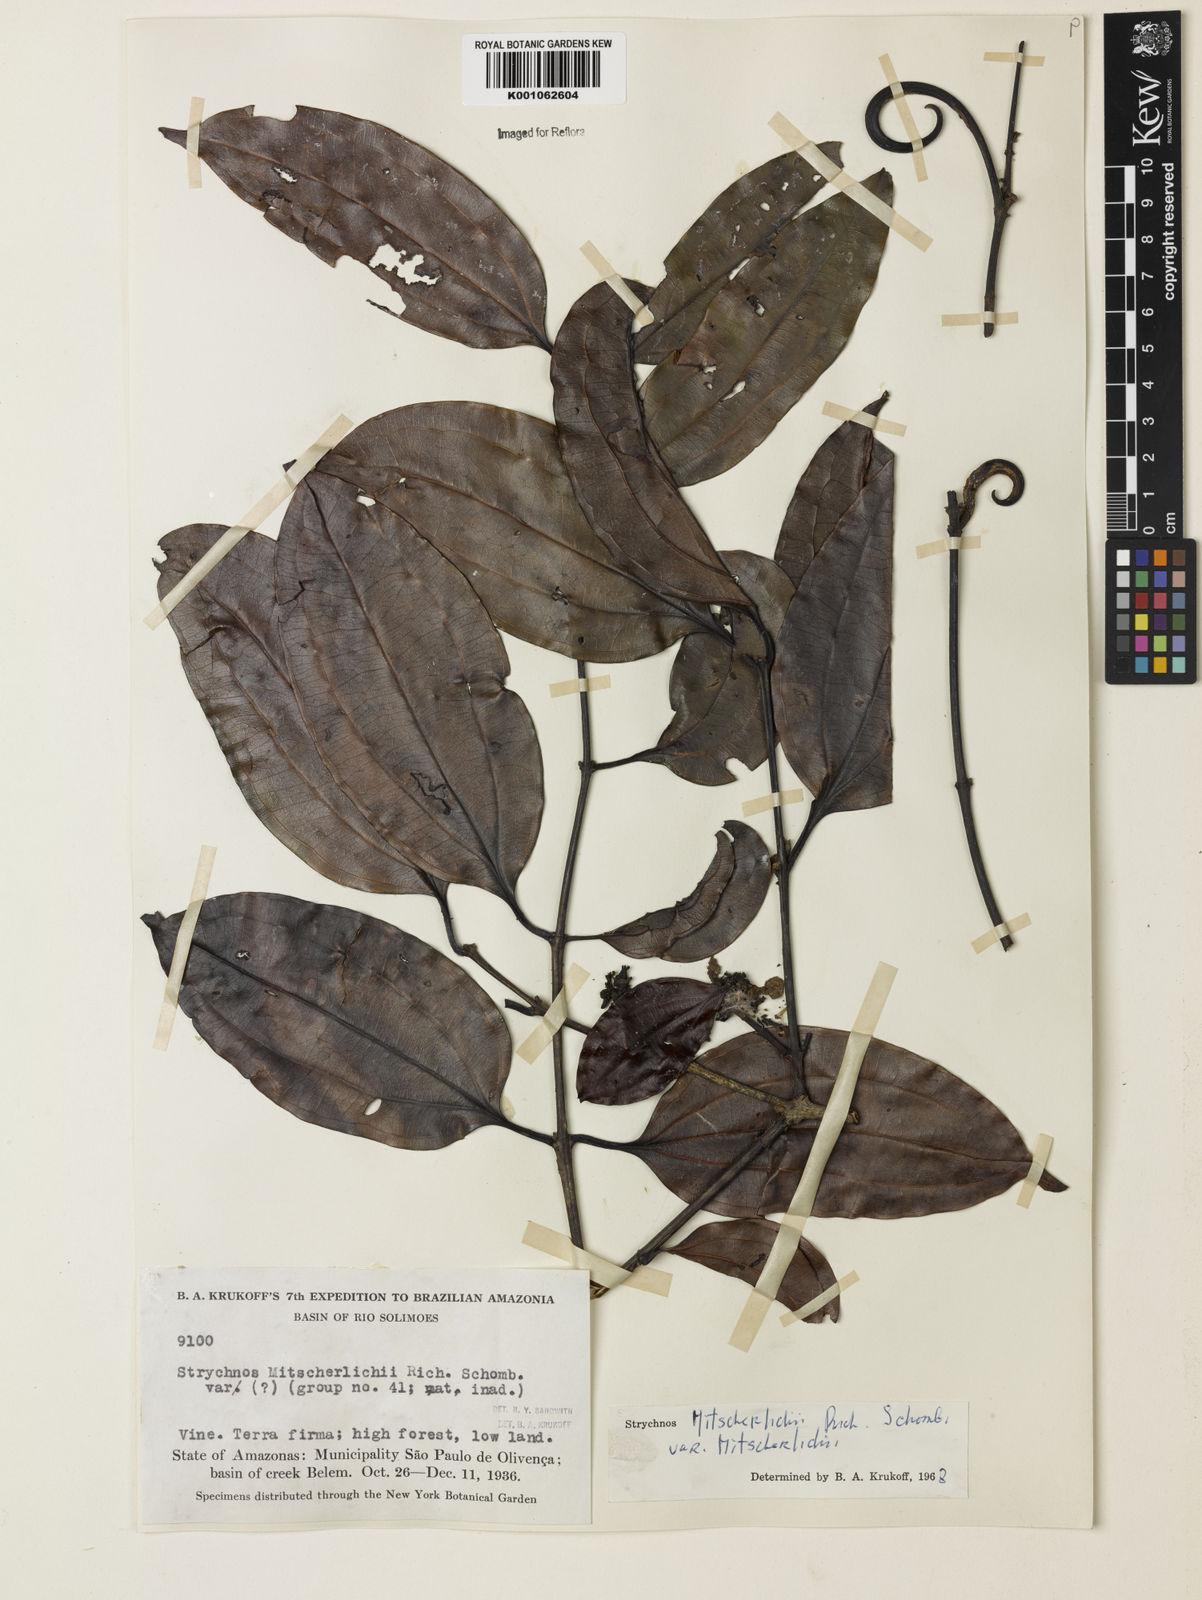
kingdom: Plantae
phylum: Tracheophyta
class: Magnoliopsida
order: Gentianales
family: Loganiaceae
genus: Strychnos
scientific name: Strychnos mitscherlichii
